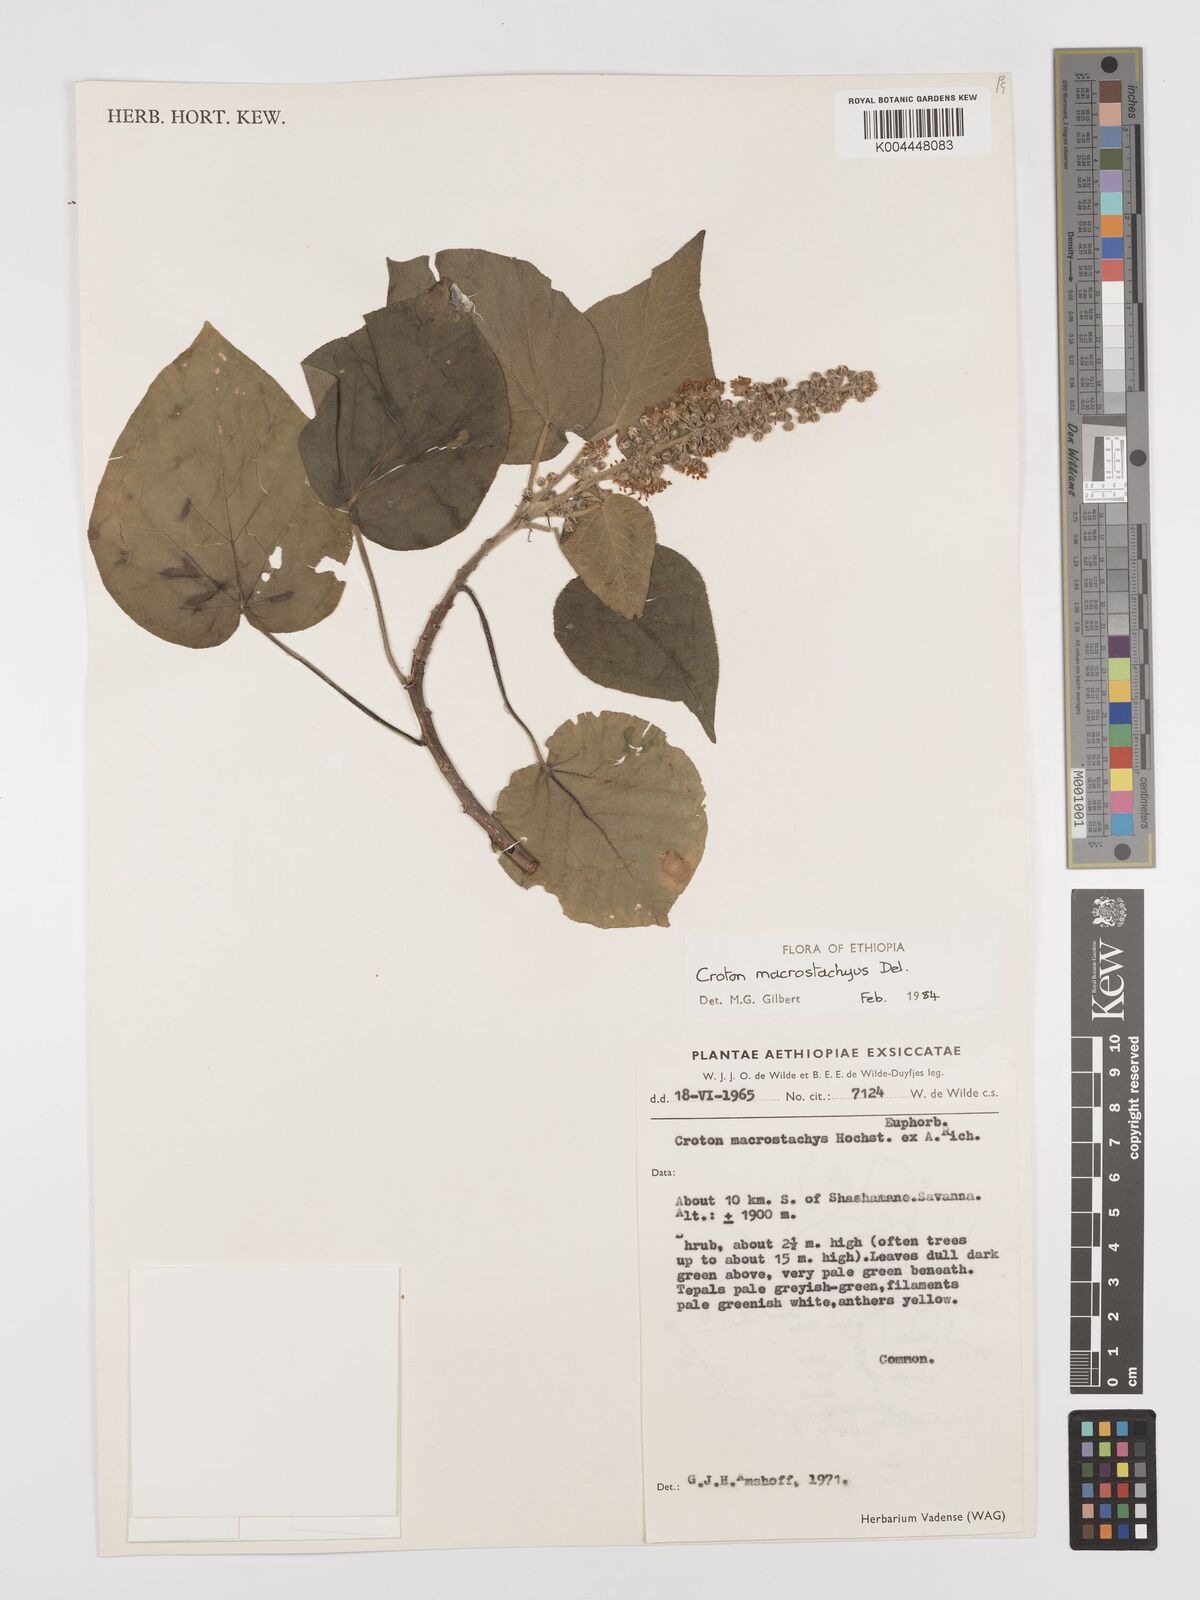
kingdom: Plantae
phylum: Tracheophyta
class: Magnoliopsida
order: Malpighiales
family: Euphorbiaceae
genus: Croton
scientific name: Croton macrostachyus
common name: Mutundu
